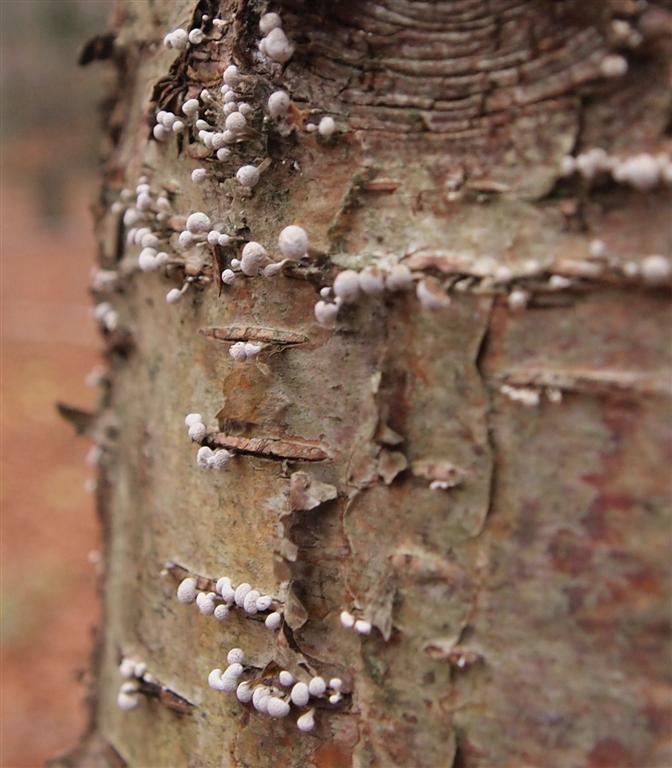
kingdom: Fungi
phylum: Basidiomycota
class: Atractiellomycetes
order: Atractiellales
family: Phleogenaceae
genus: Phleogena
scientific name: Phleogena faginea
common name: pudderkølle
